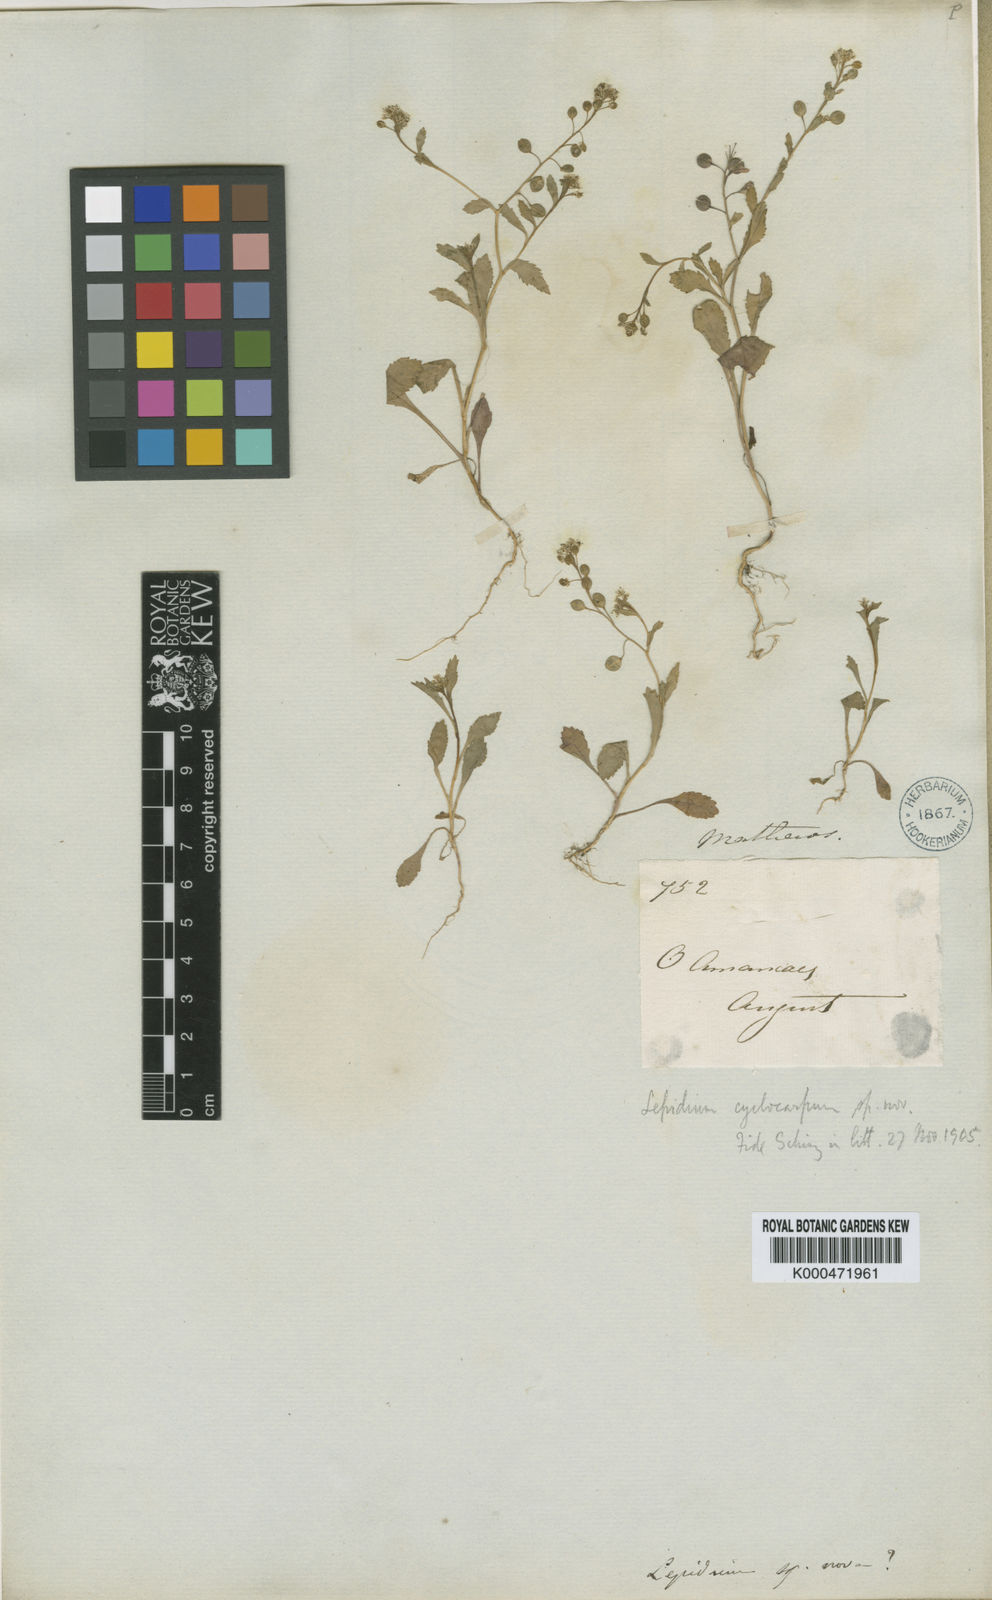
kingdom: Plantae
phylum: Tracheophyta
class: Magnoliopsida
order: Brassicales
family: Brassicaceae
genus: Lepidium
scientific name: Lepidium cyclocarpum
